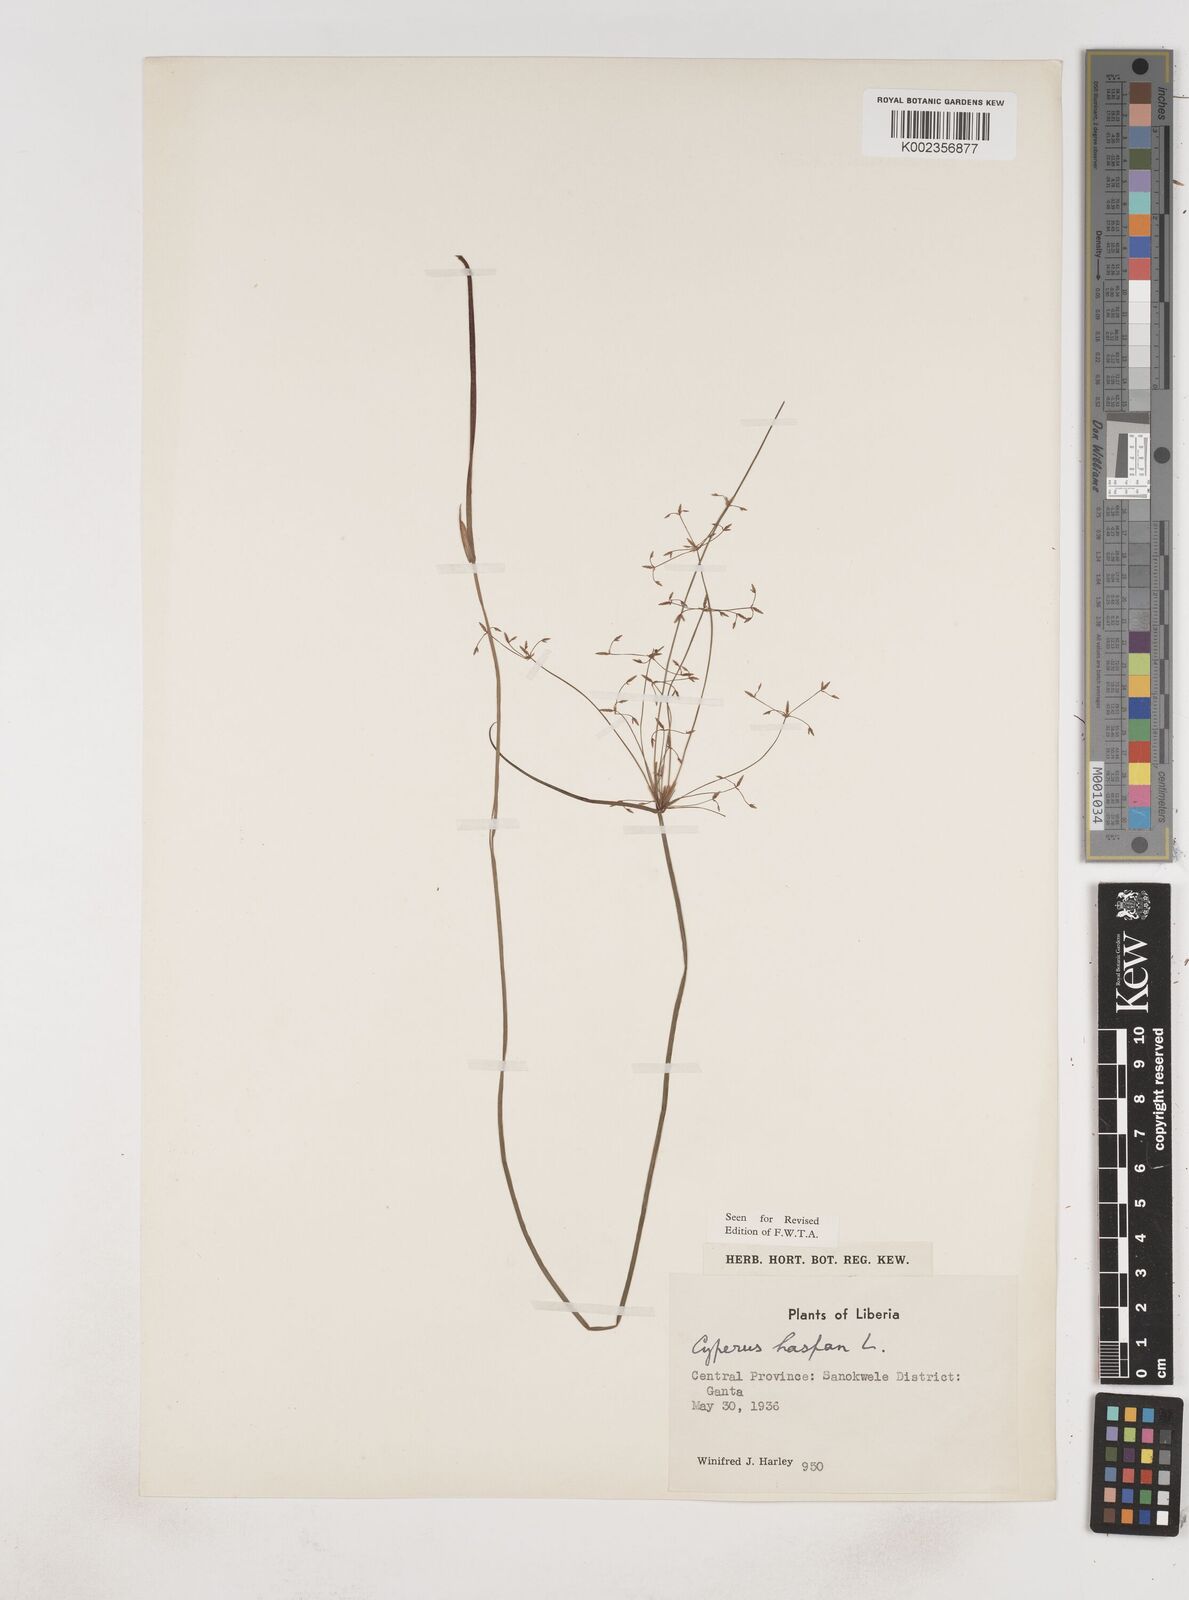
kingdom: Plantae
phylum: Tracheophyta
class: Liliopsida
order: Poales
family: Cyperaceae
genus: Cyperus
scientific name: Cyperus haspan
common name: Haspan flatsedge
